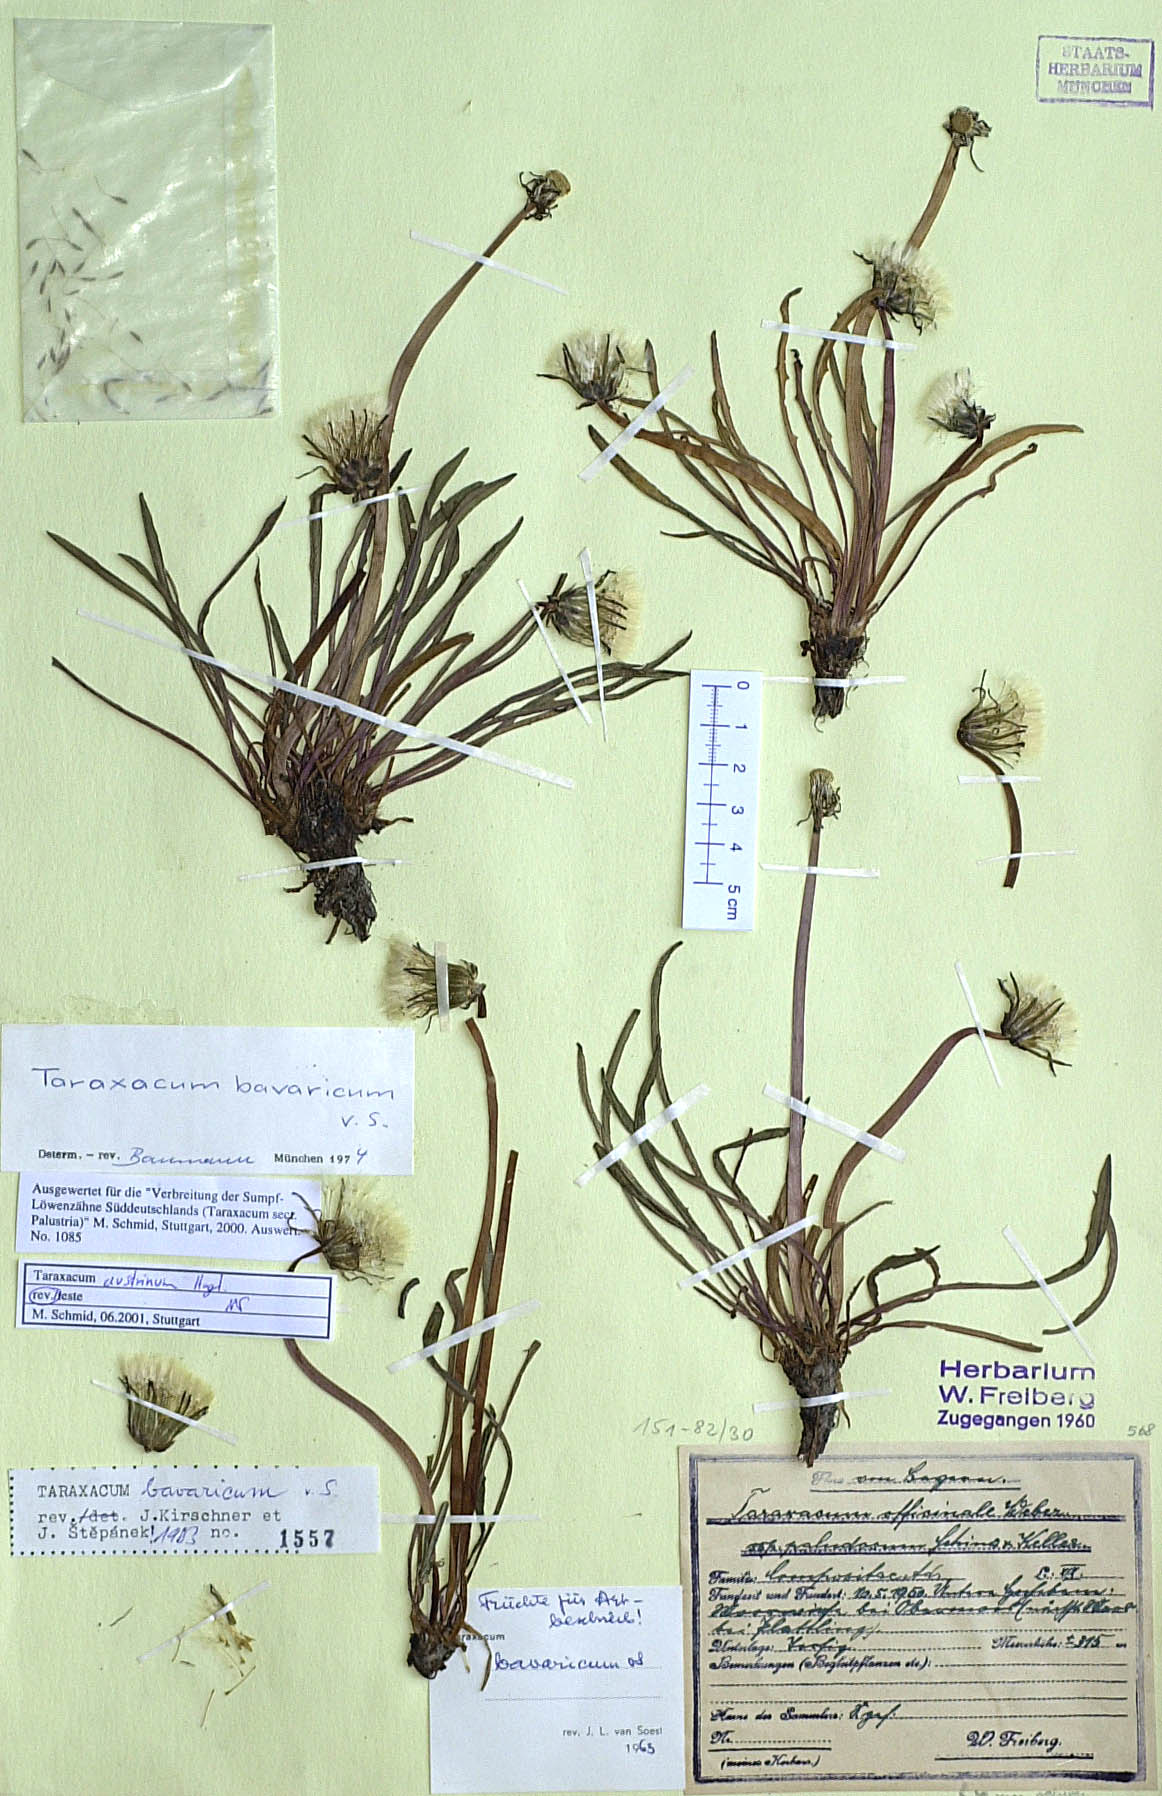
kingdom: Plantae
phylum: Tracheophyta
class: Magnoliopsida
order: Asterales
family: Asteraceae
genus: Taraxacum
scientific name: Taraxacum austrinum
